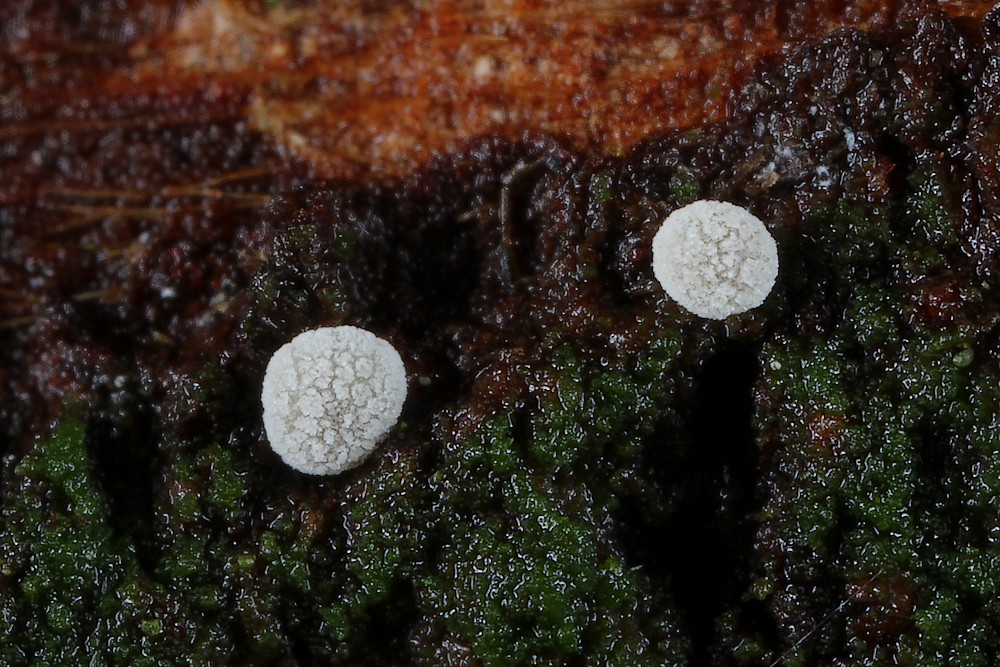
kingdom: Fungi
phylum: Basidiomycota
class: Agaricomycetes
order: Agaricales
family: Mycenaceae
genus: Mycena
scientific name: Mycena
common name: huesvamp
